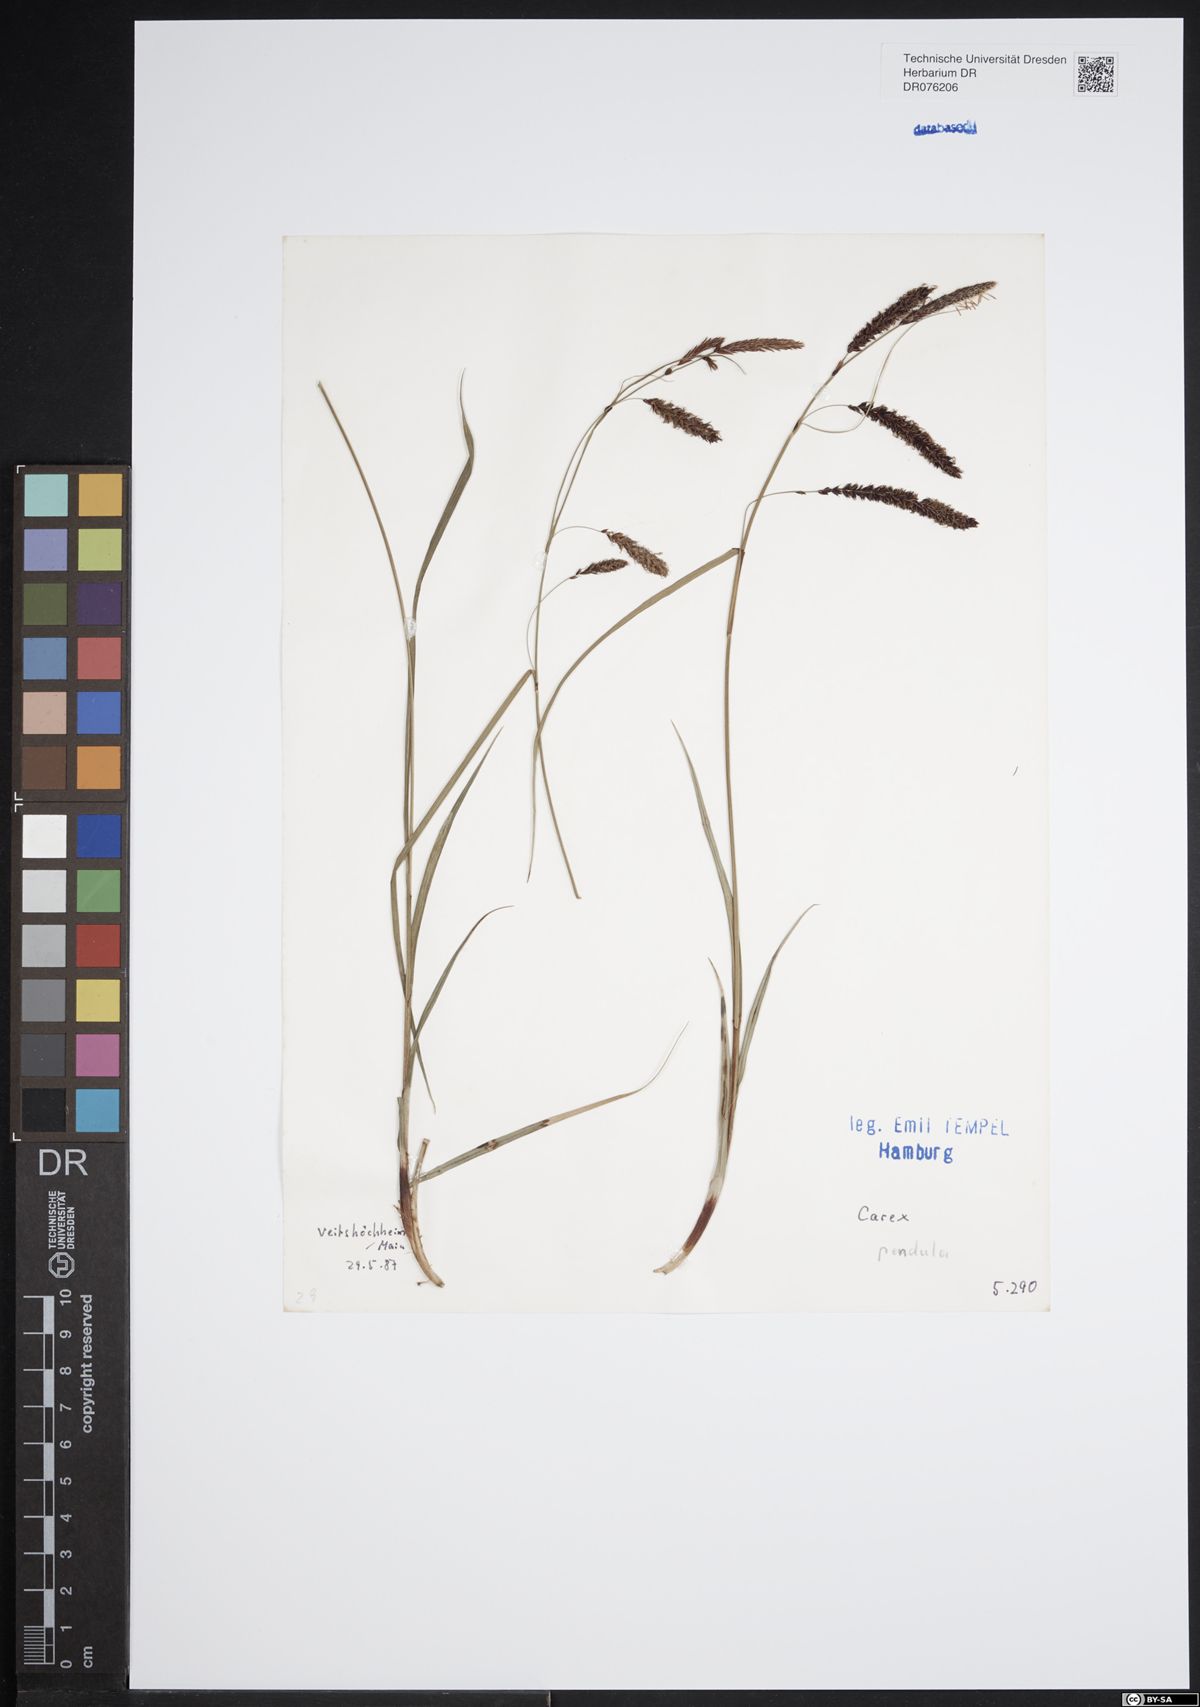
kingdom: Plantae
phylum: Tracheophyta
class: Liliopsida
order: Poales
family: Cyperaceae
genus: Carex
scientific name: Carex pendula
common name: Pendulous sedge
